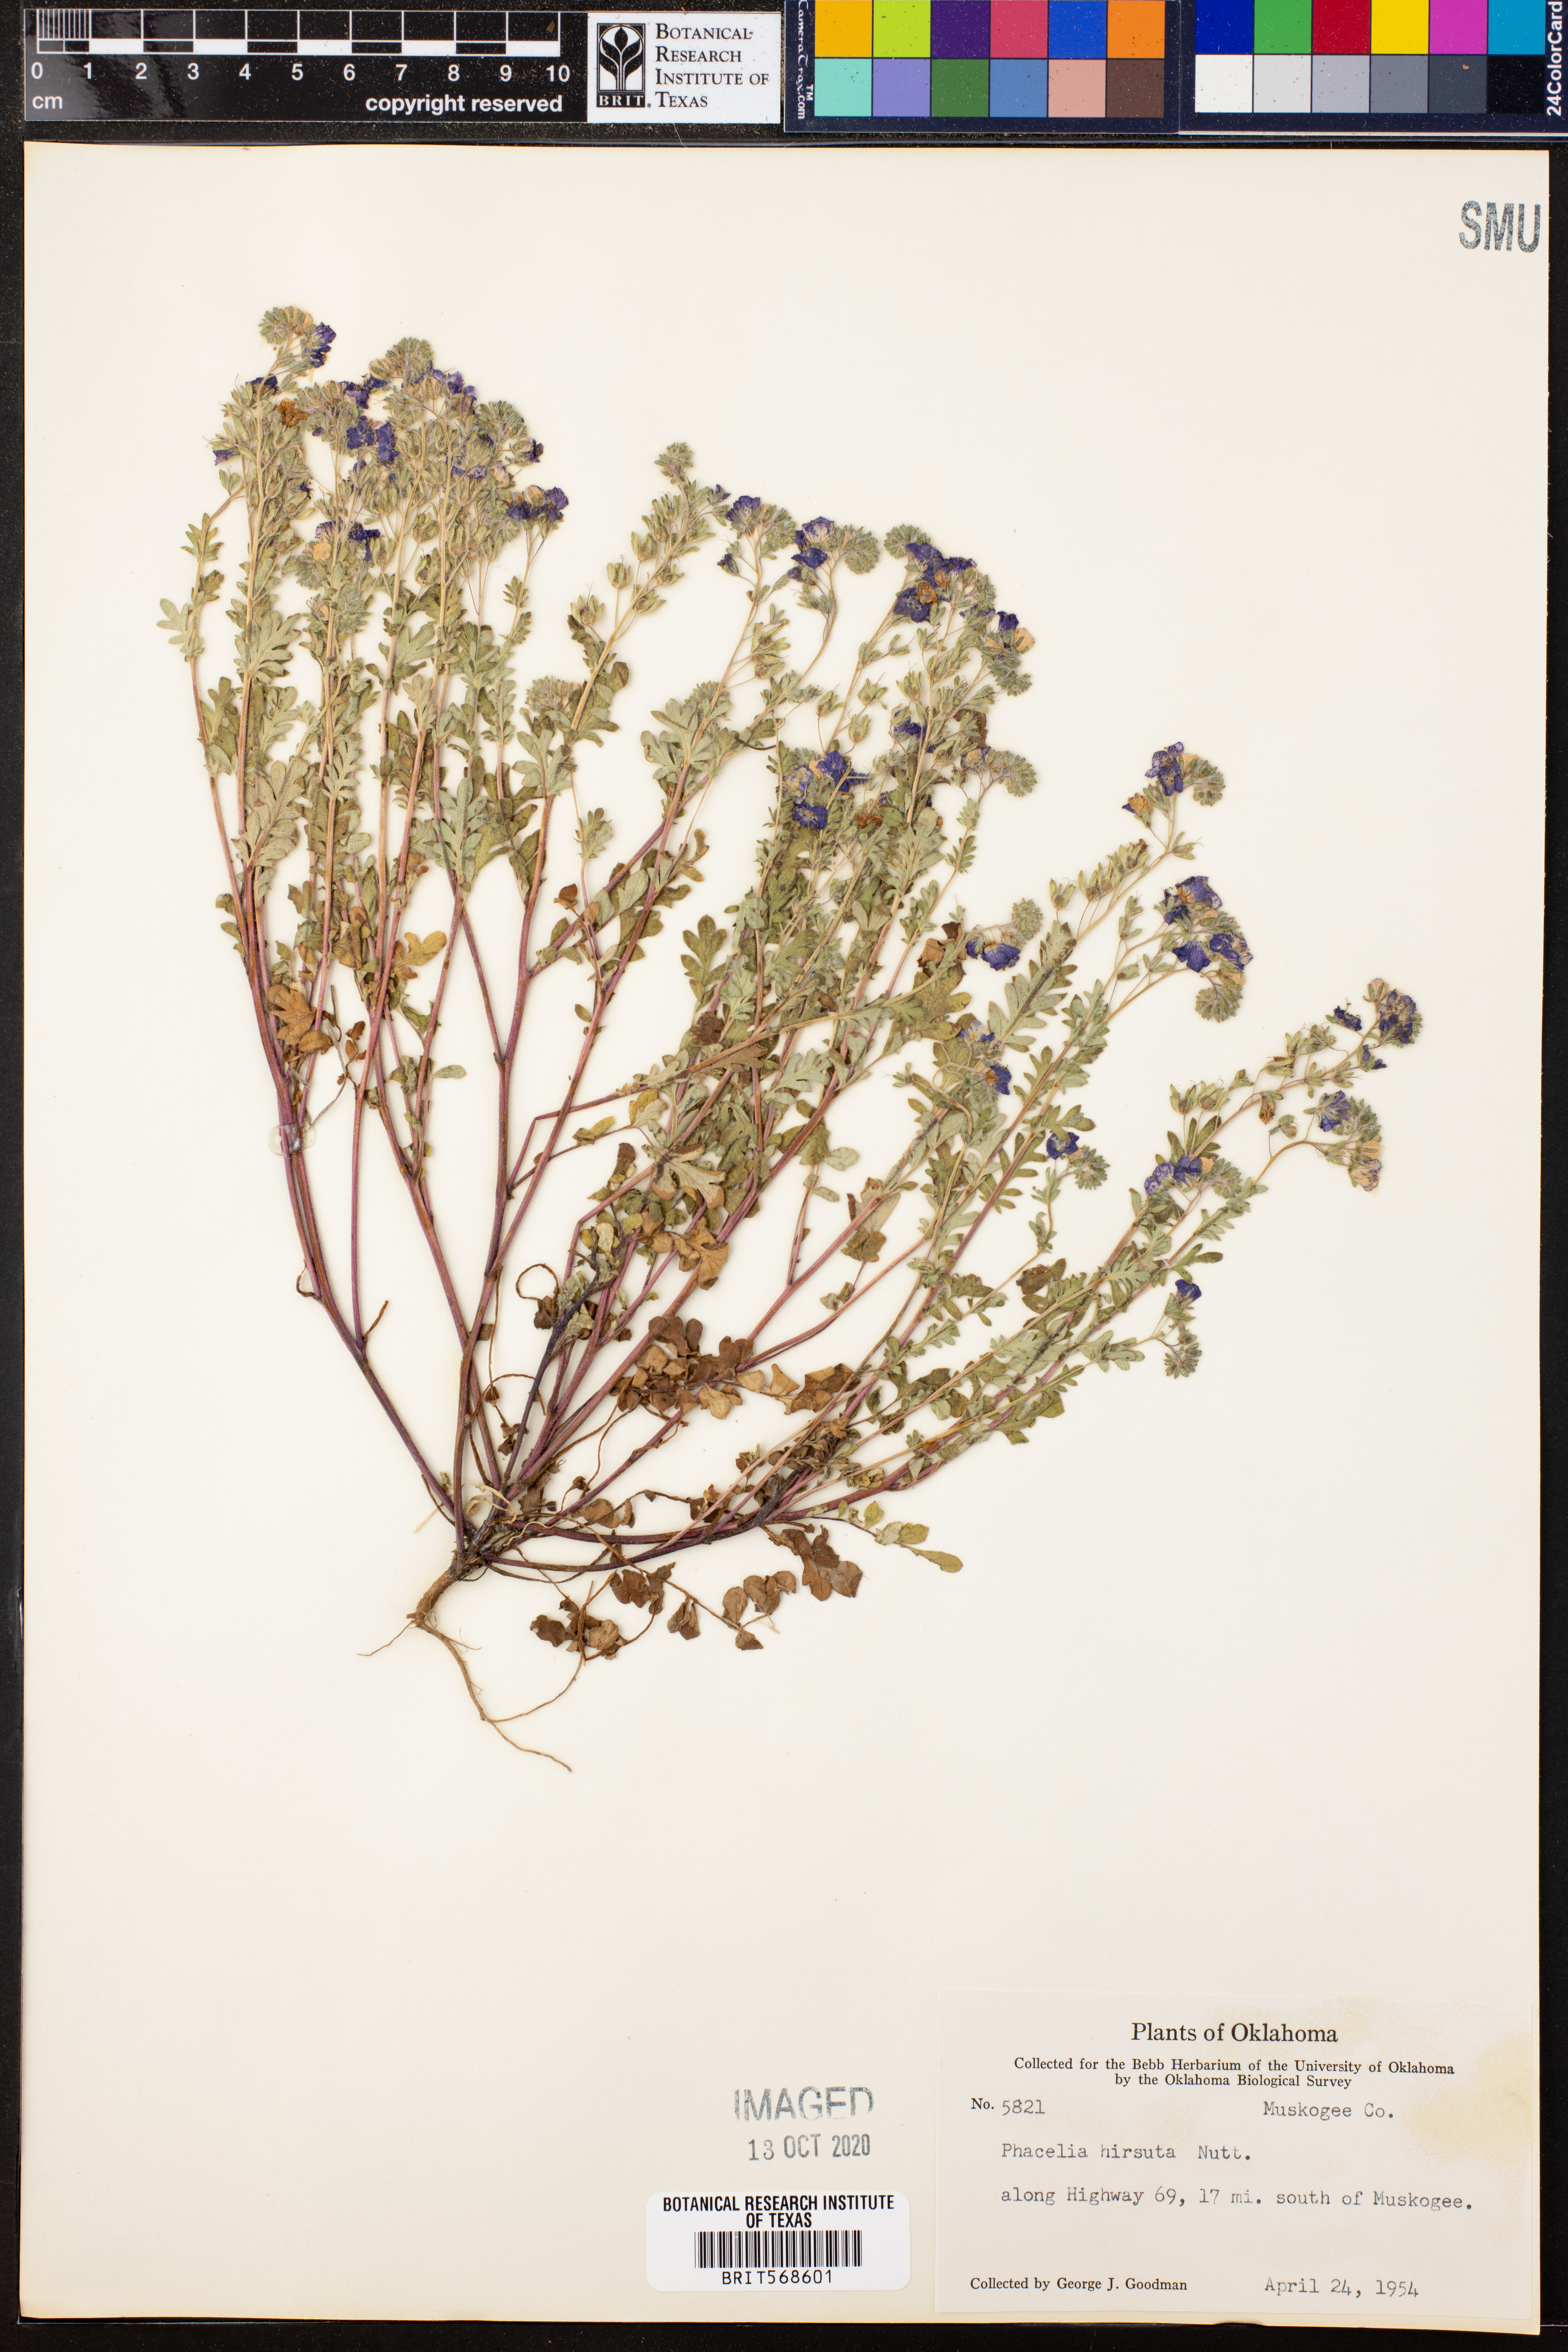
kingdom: Plantae
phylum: Tracheophyta
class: Magnoliopsida
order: Boraginales
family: Hydrophyllaceae
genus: Phacelia
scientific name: Phacelia hirsuta
